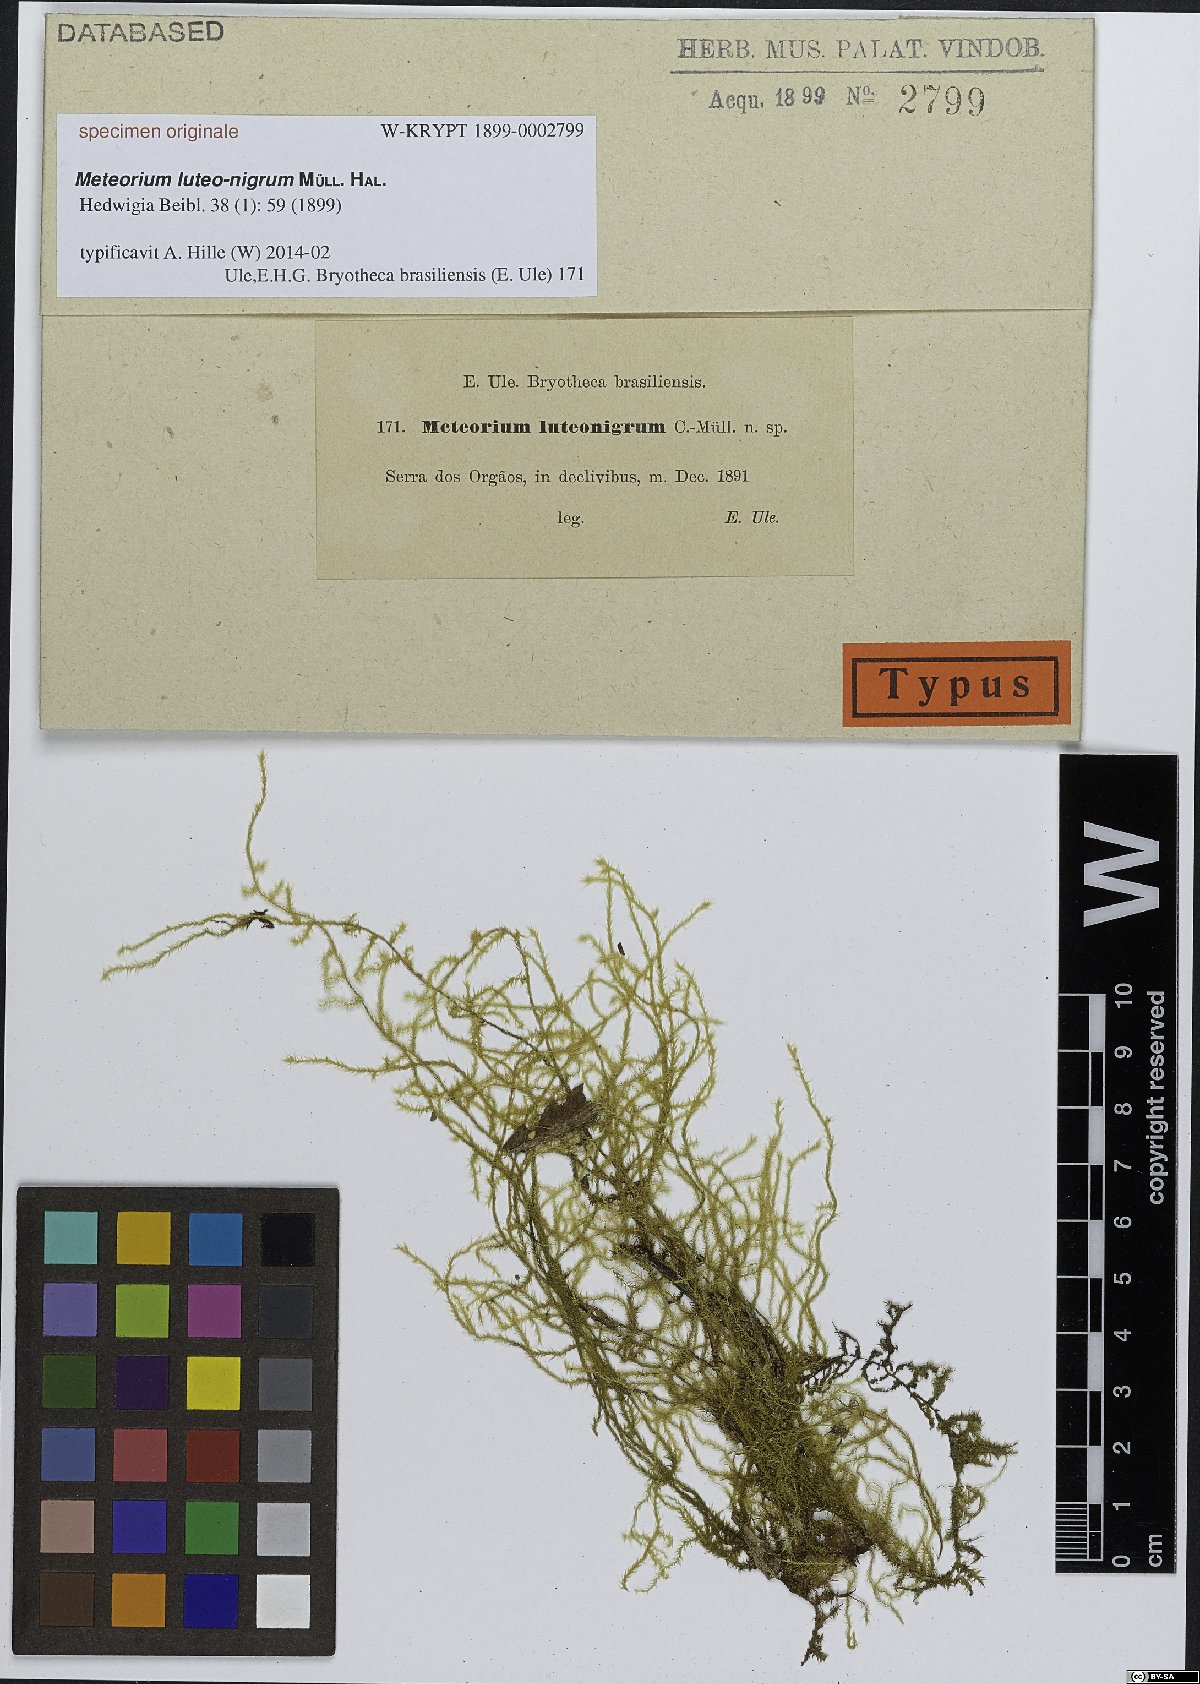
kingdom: Plantae
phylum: Bryophyta
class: Bryopsida
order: Hypnales
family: Meteoriaceae
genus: Meteorium
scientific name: Meteorium
